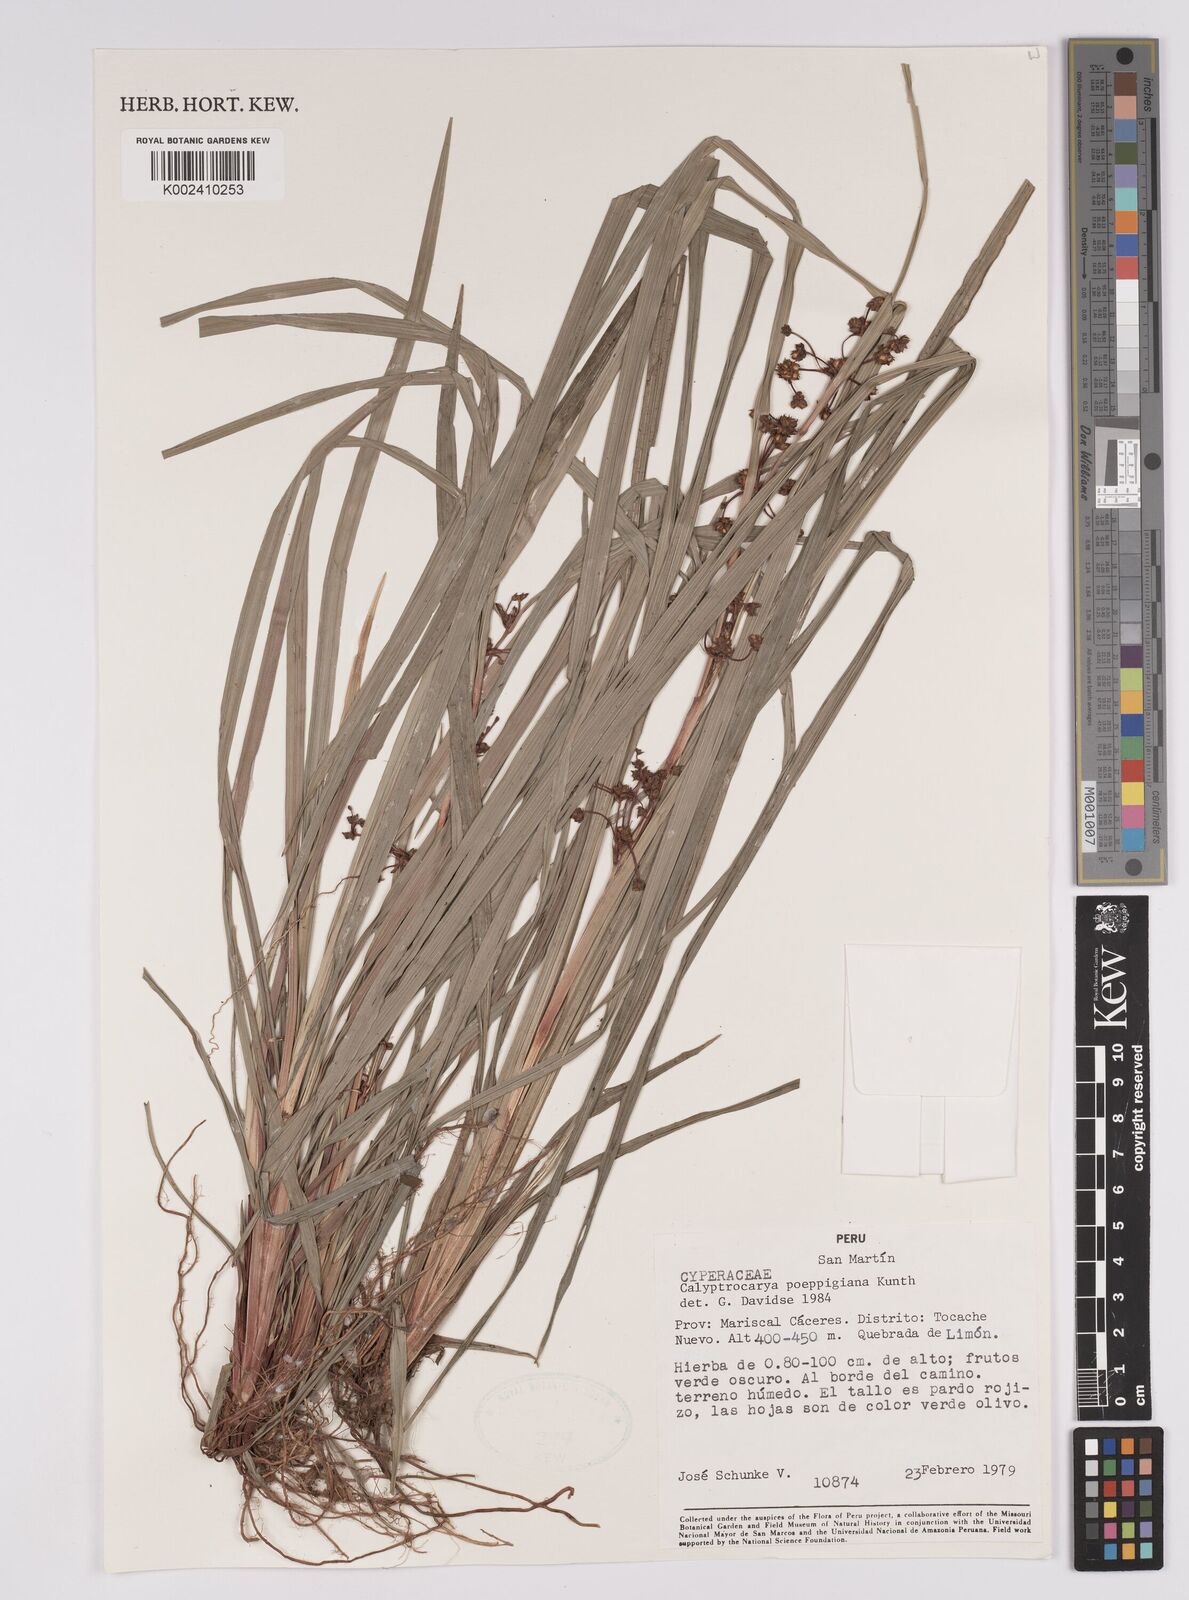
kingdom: Plantae
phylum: Tracheophyta
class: Liliopsida
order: Poales
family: Cyperaceae
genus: Calyptrocarya
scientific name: Calyptrocarya poeppigiana
